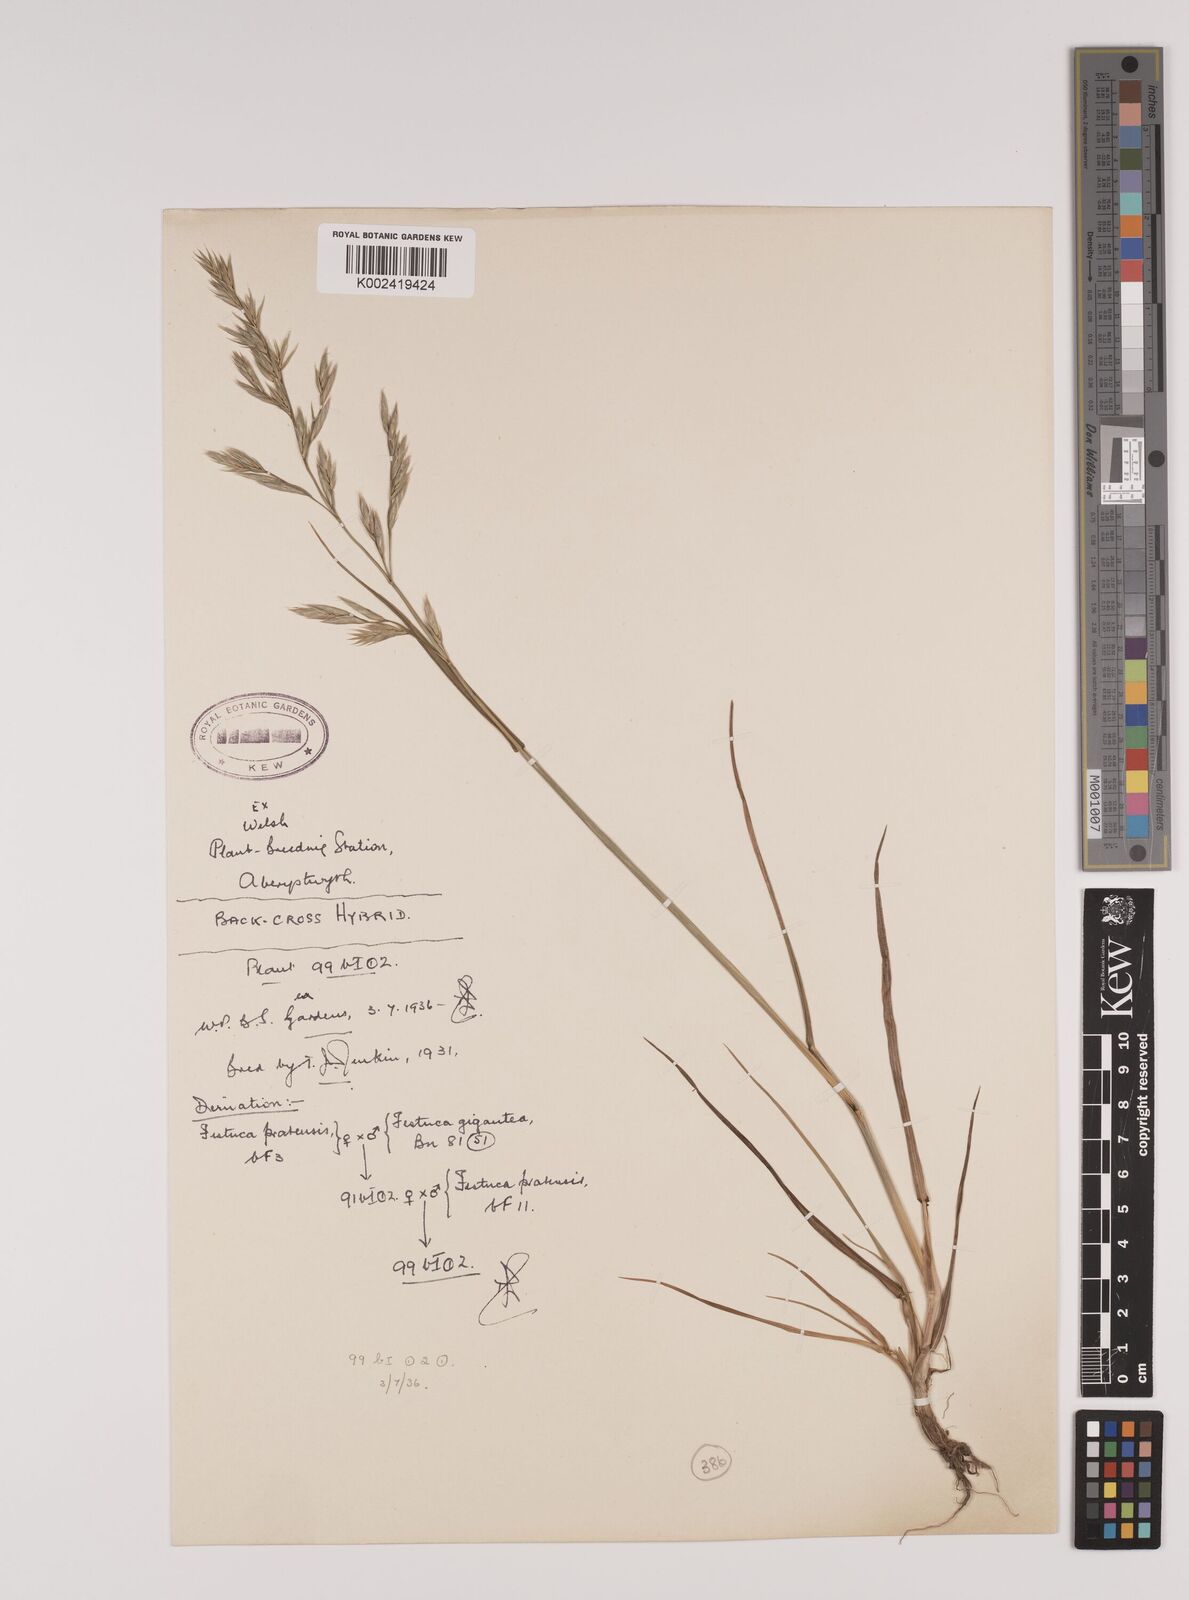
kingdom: Plantae
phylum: Tracheophyta
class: Liliopsida
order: Poales
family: Poaceae
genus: Lolium
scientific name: Lolium giganteum
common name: Giant fescue
